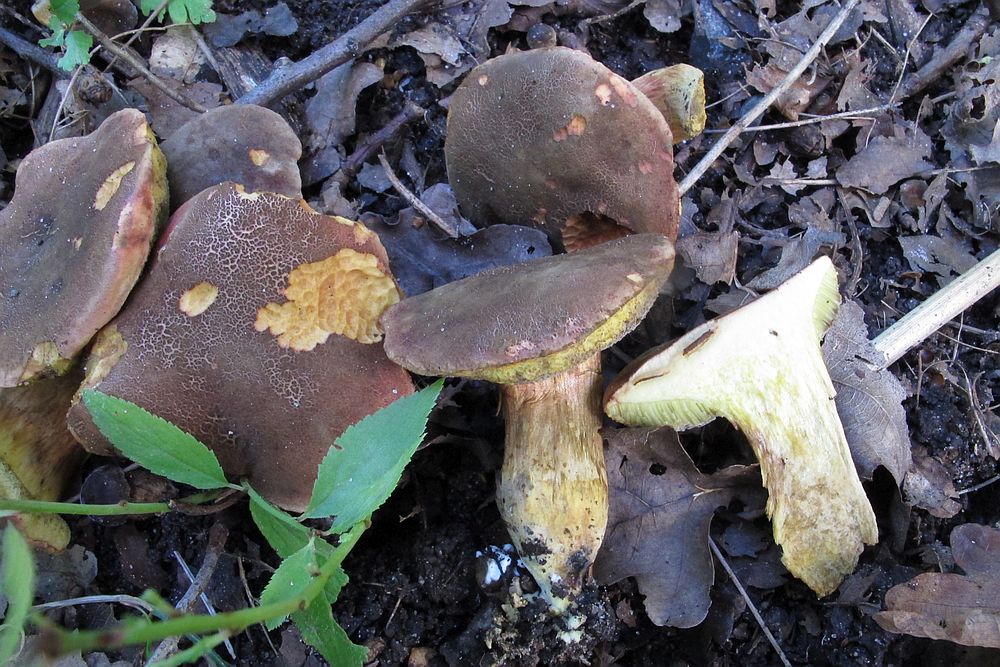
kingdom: Fungi
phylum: Basidiomycota
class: Agaricomycetes
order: Boletales
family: Boletaceae
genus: Xerocomellus
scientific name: Xerocomellus chrysenteron
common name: rødsprukken rørhat
